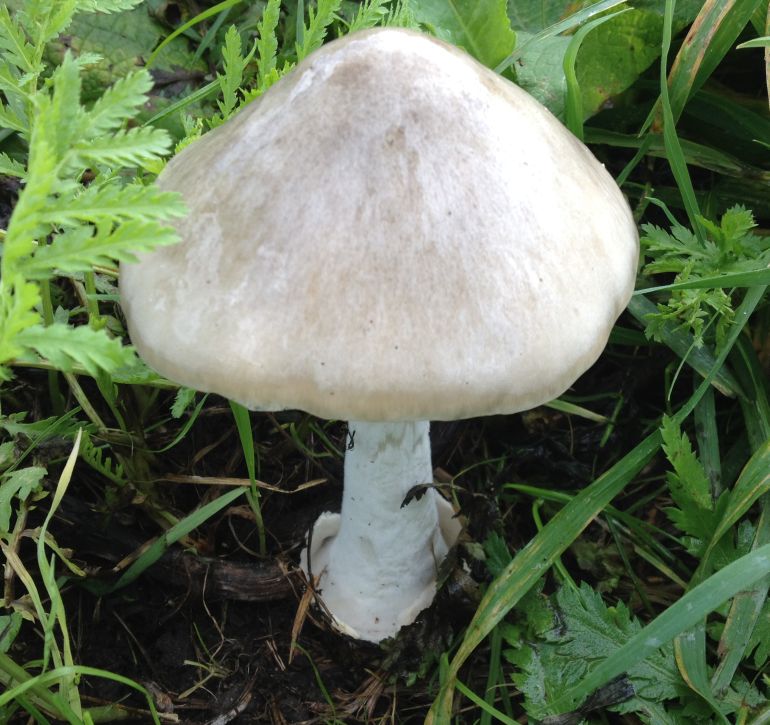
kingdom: Fungi
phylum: Basidiomycota
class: Agaricomycetes
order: Agaricales
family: Pluteaceae
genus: Volvopluteus
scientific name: Volvopluteus gloiocephalus
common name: høj posesvamp
